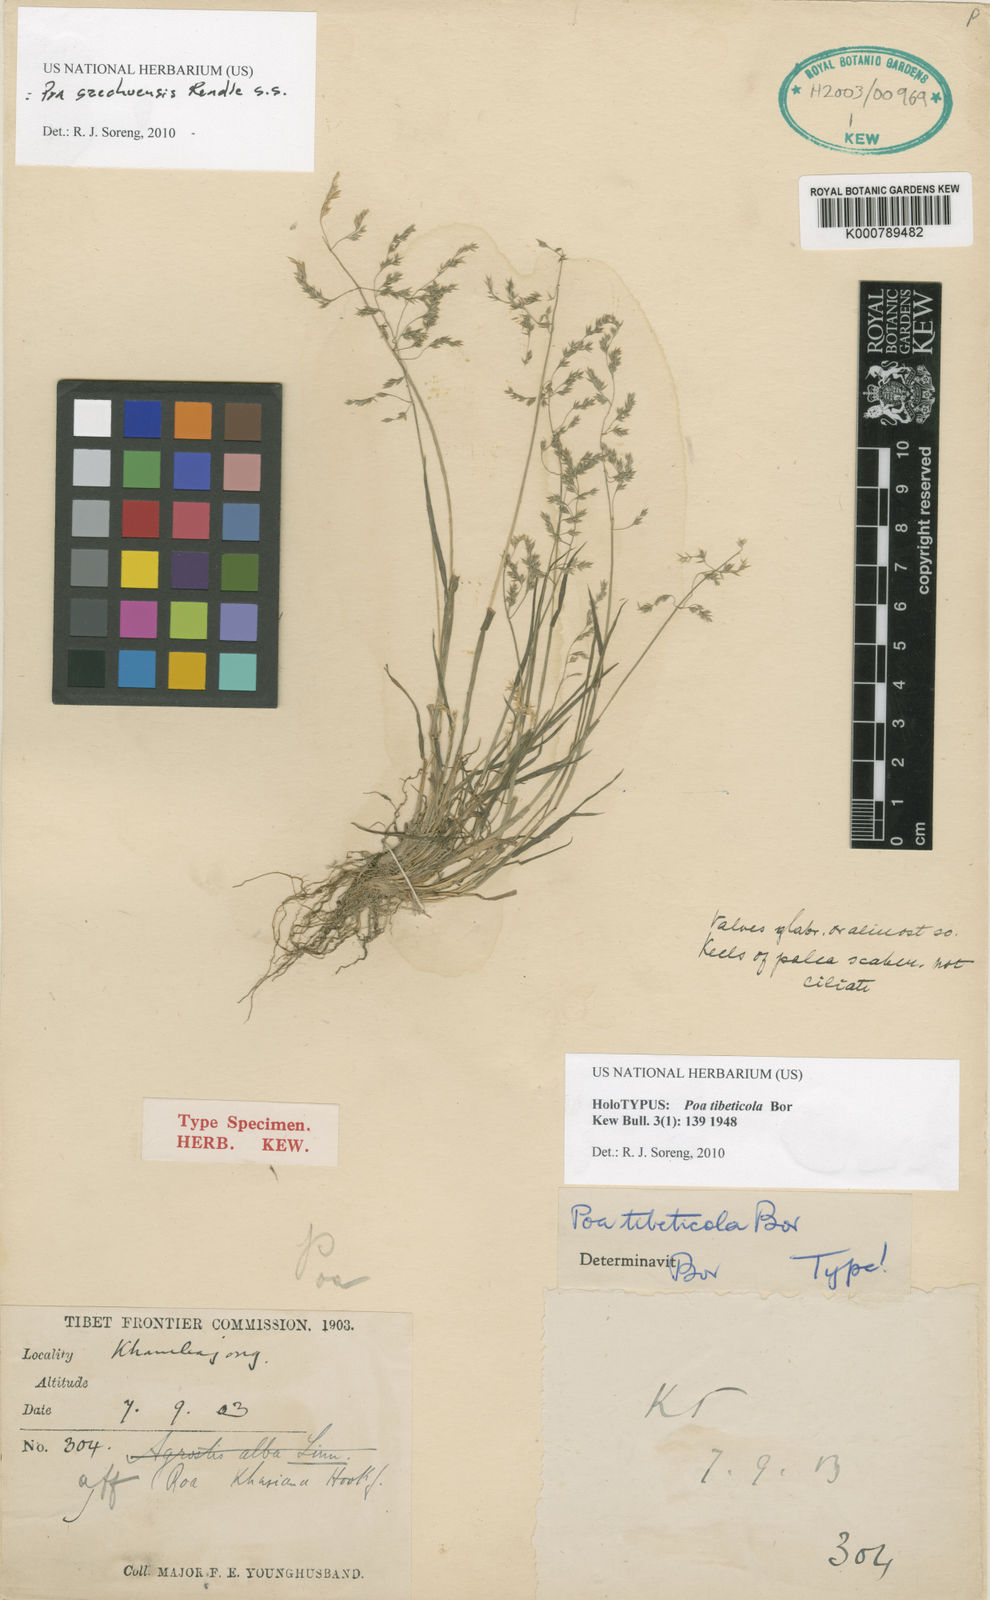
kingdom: Plantae
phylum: Tracheophyta
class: Liliopsida
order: Poales
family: Poaceae
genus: Poa
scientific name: Poa sikkimensis
